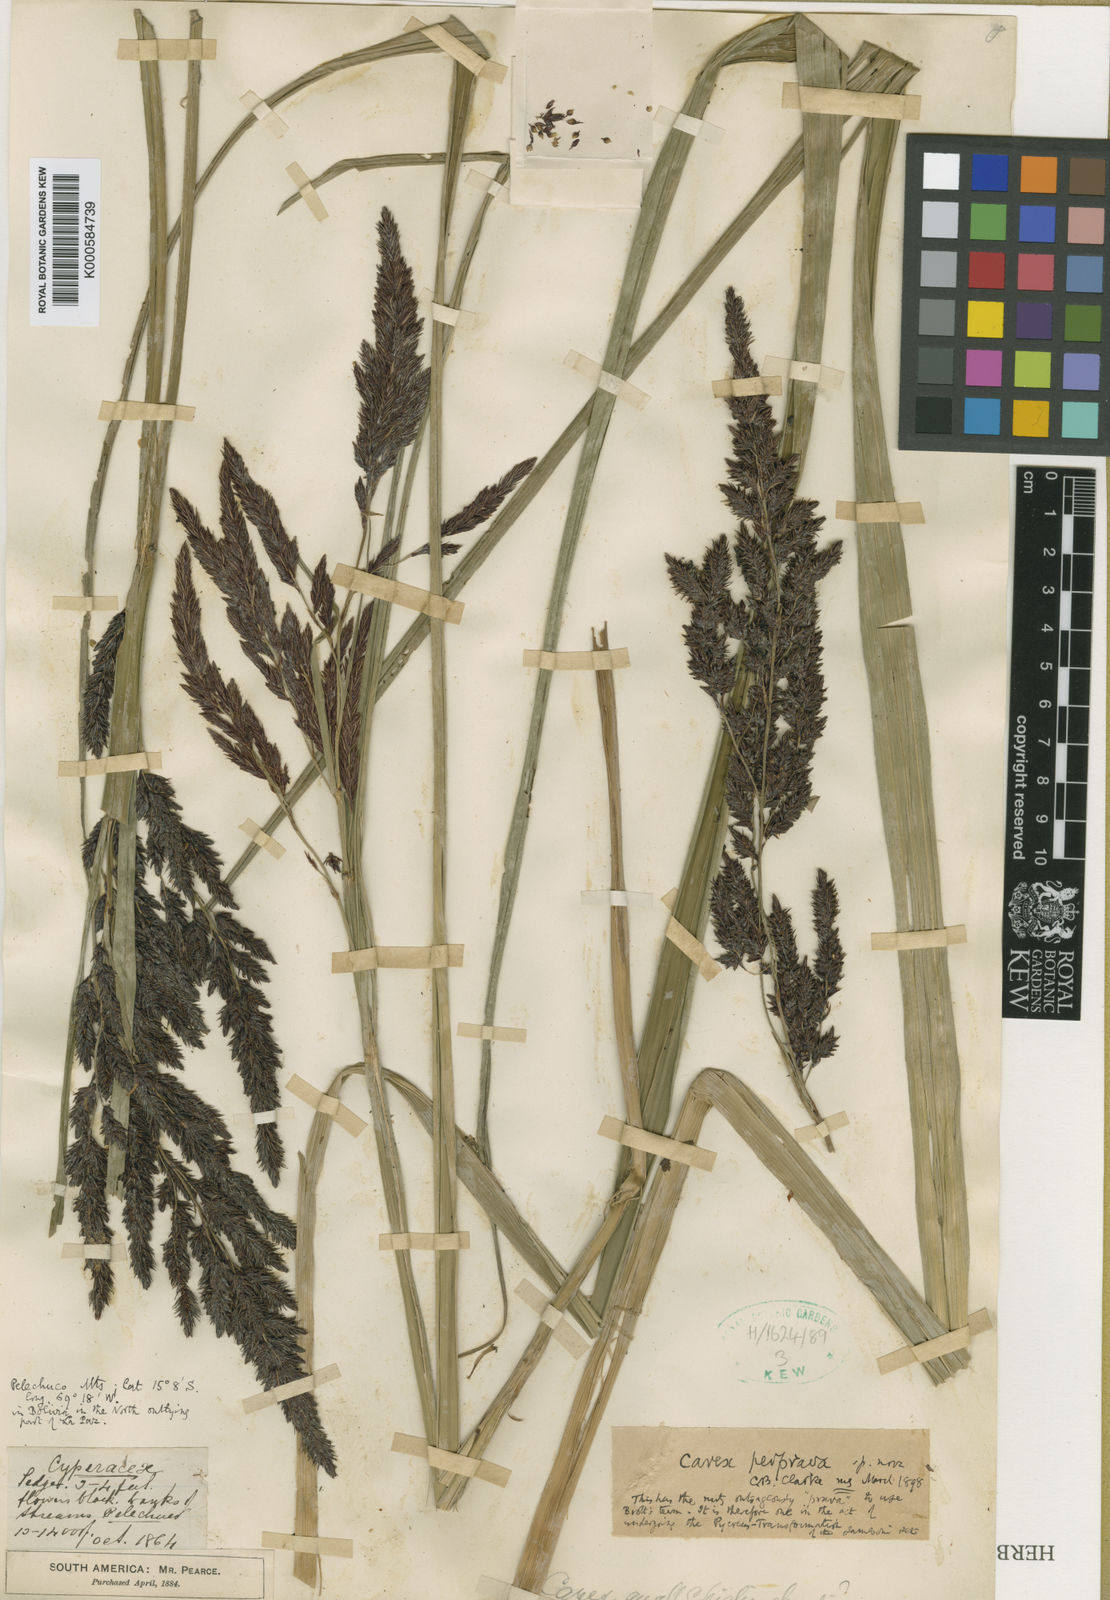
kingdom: Plantae
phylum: Tracheophyta
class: Liliopsida
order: Poales
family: Cyperaceae
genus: Carex
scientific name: Carex perprava
